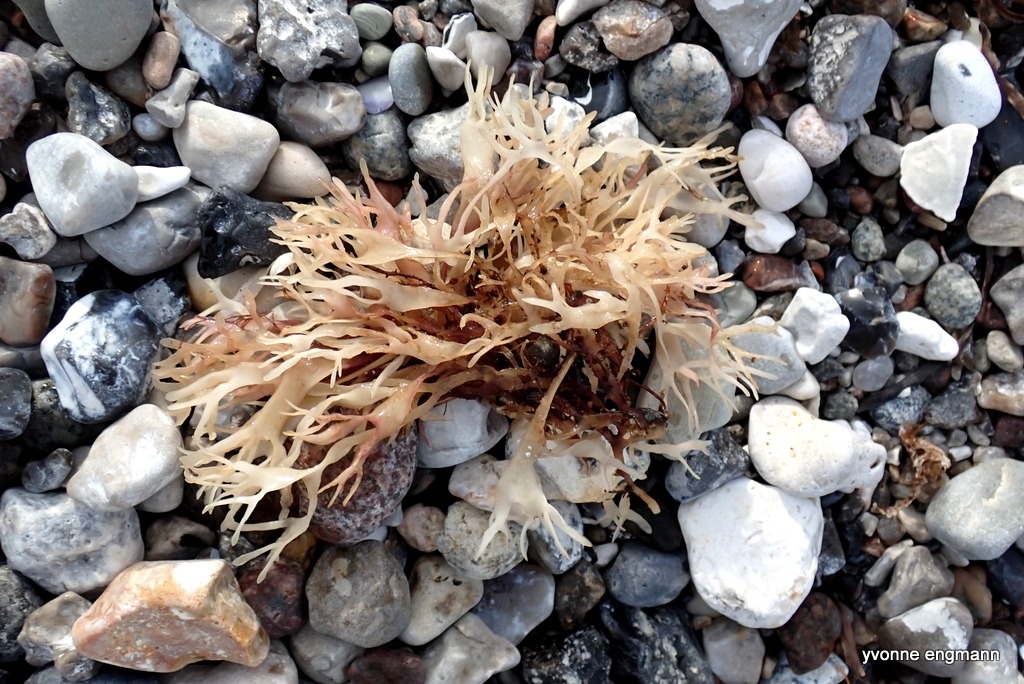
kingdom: Plantae
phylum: Rhodophyta
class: Florideophyceae
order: Gigartinales
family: Gigartinaceae
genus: Chondrus
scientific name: Chondrus crispus
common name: Carrageentang
